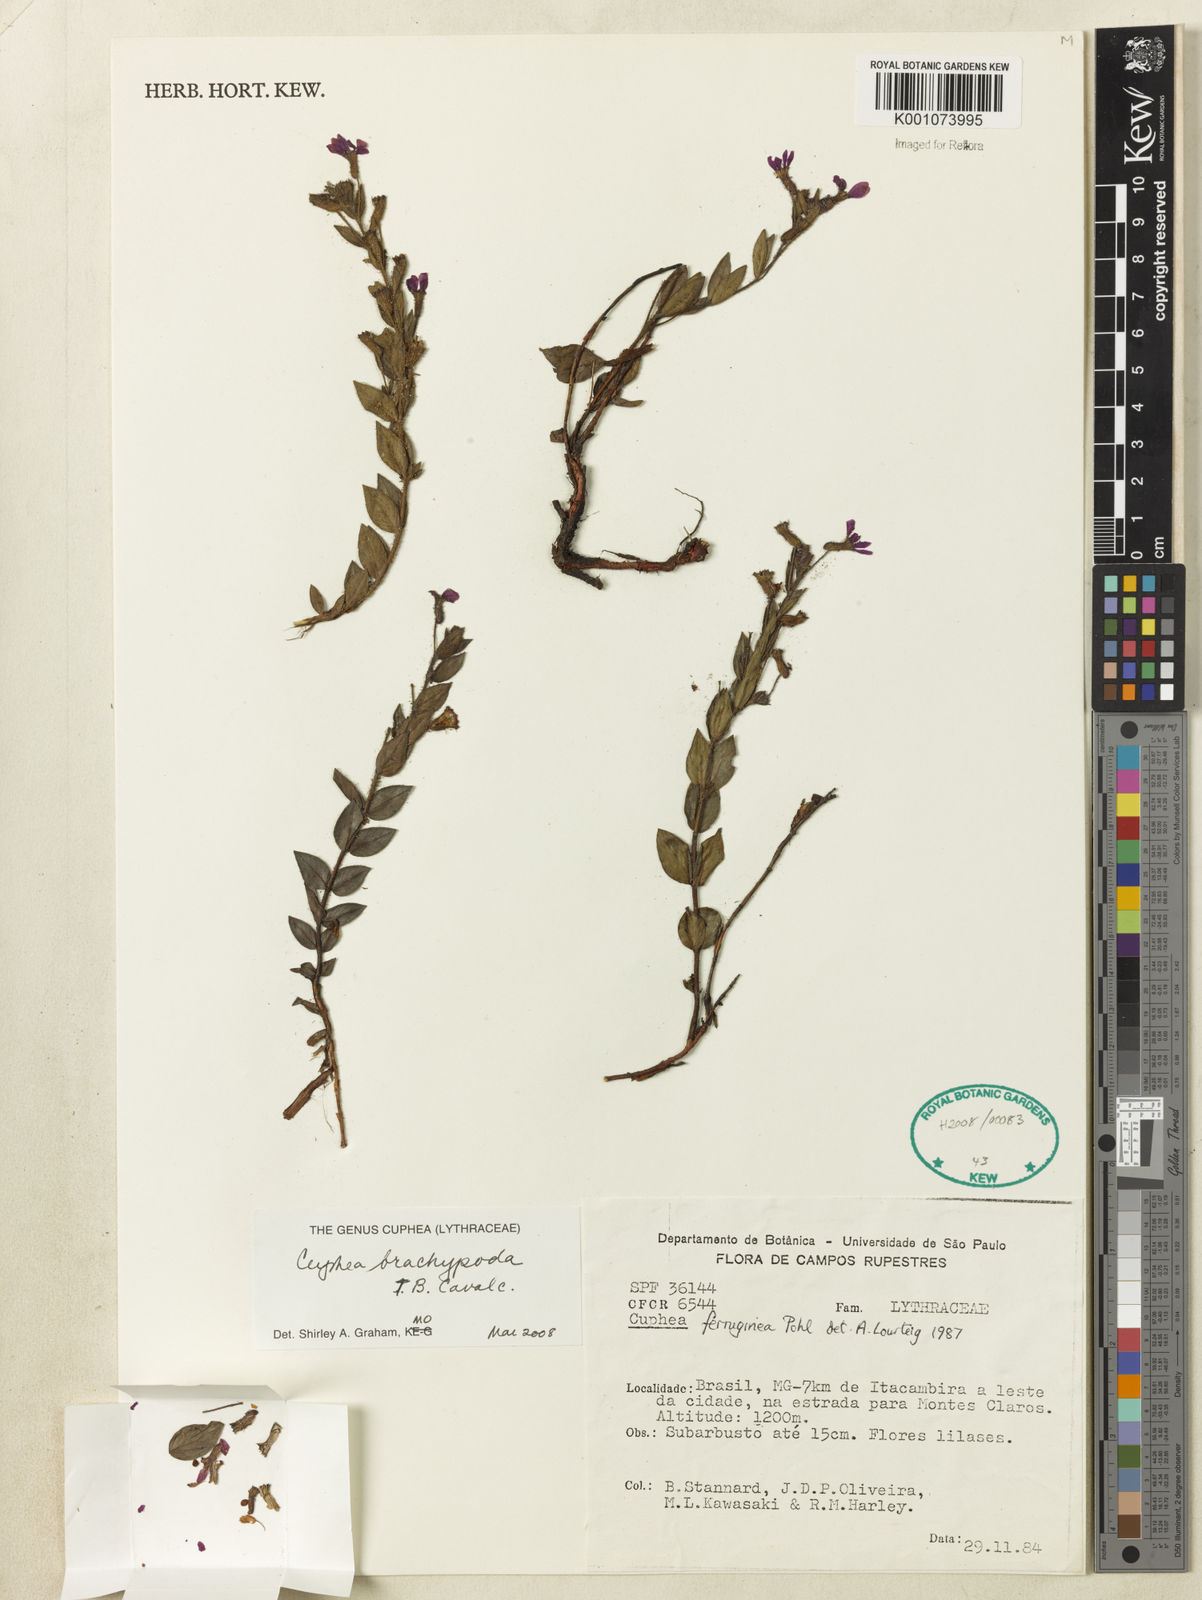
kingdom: Plantae
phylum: Tracheophyta
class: Magnoliopsida
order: Myrtales
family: Lythraceae
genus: Cuphea
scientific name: Cuphea brachypoda
